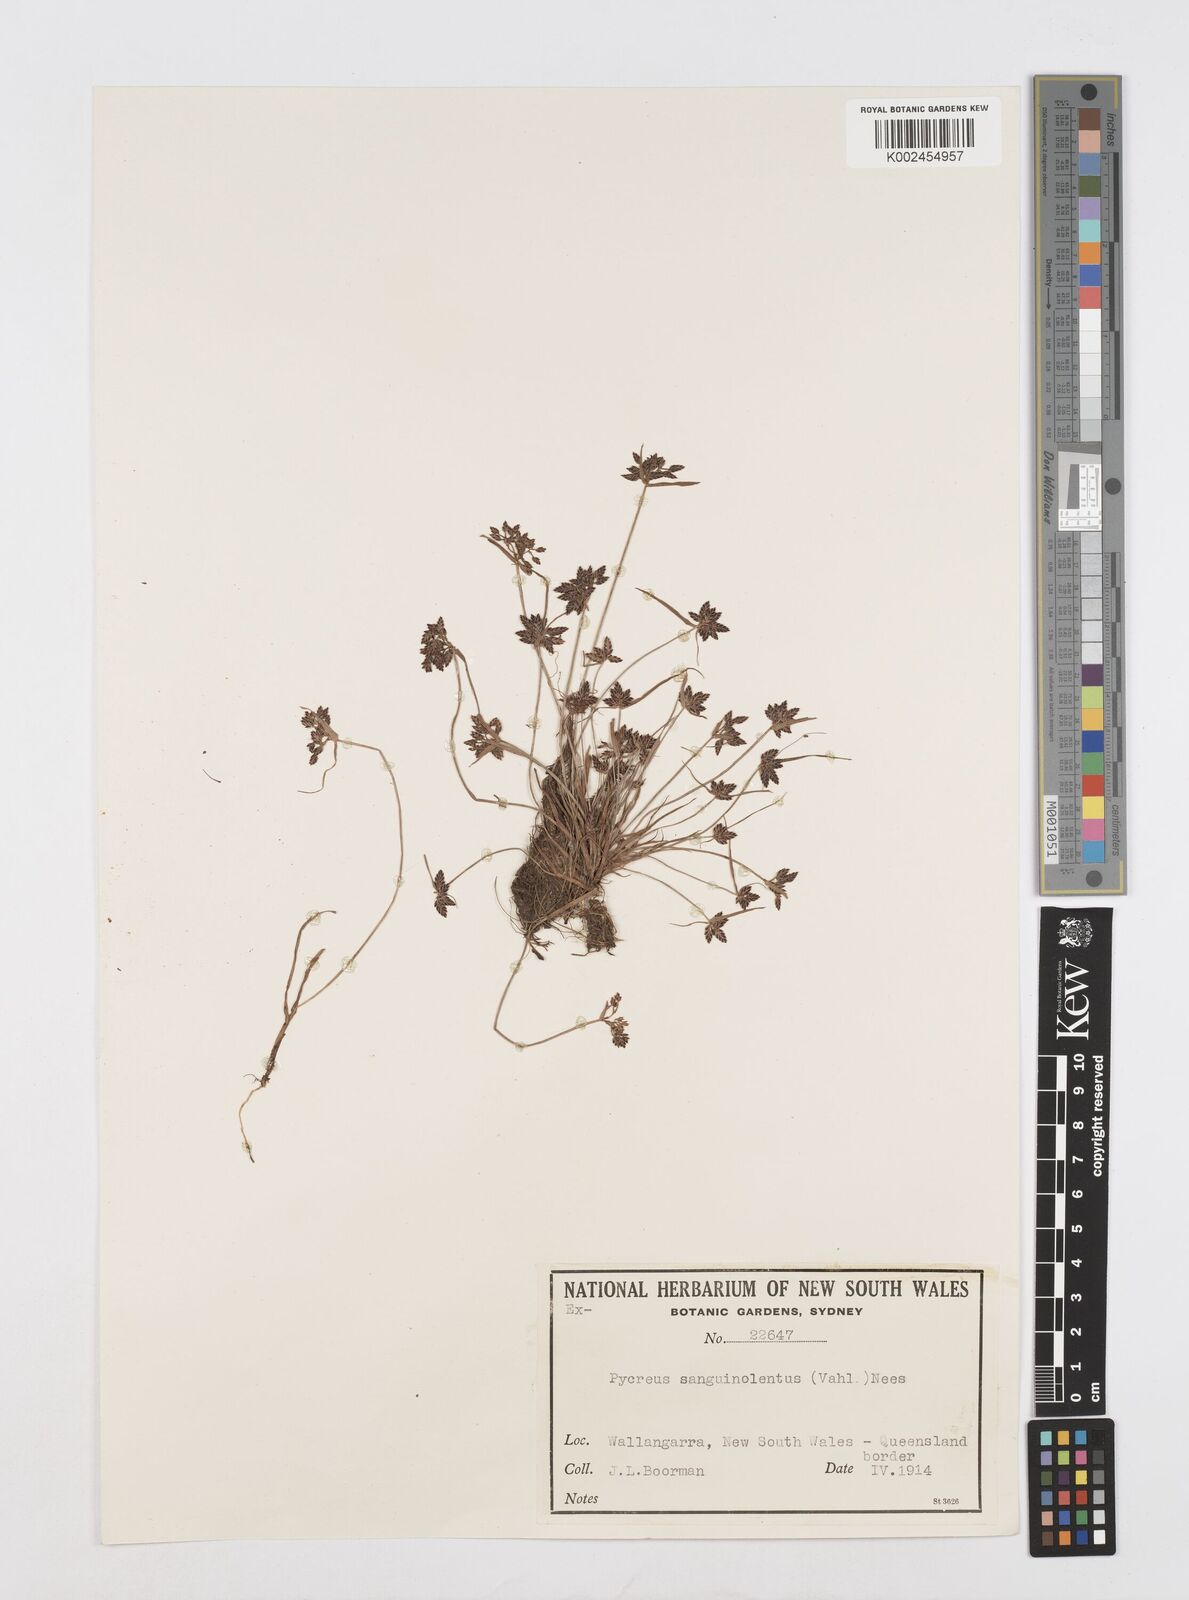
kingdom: Plantae
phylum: Tracheophyta
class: Liliopsida
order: Poales
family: Cyperaceae
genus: Cyperus
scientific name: Cyperus sanguinolentus
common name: Purpleglume flatsedge
